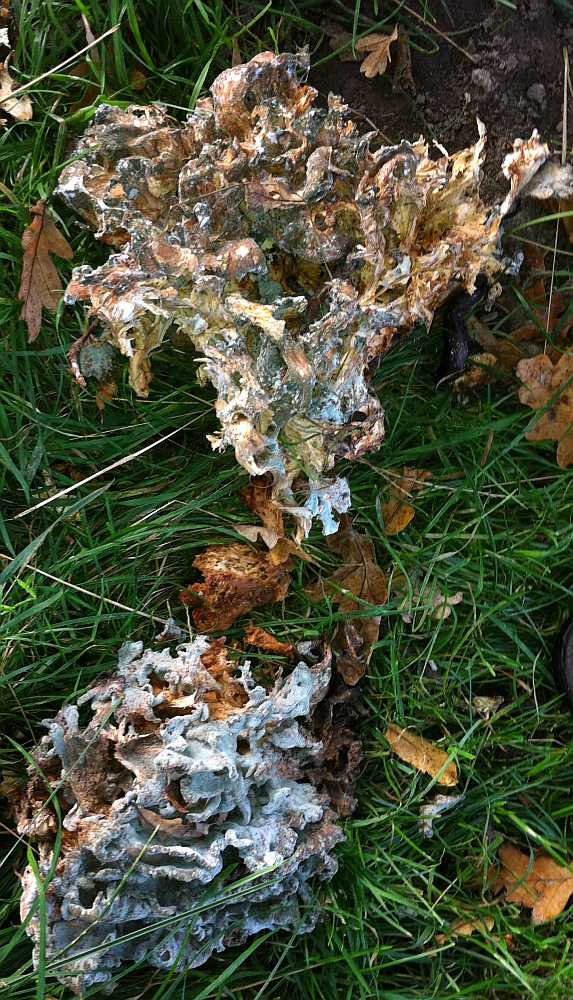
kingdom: Fungi
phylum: Basidiomycota
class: Agaricomycetes
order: Polyporales
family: Grifolaceae
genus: Grifola
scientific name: Grifola frondosa
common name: tueporesvamp
